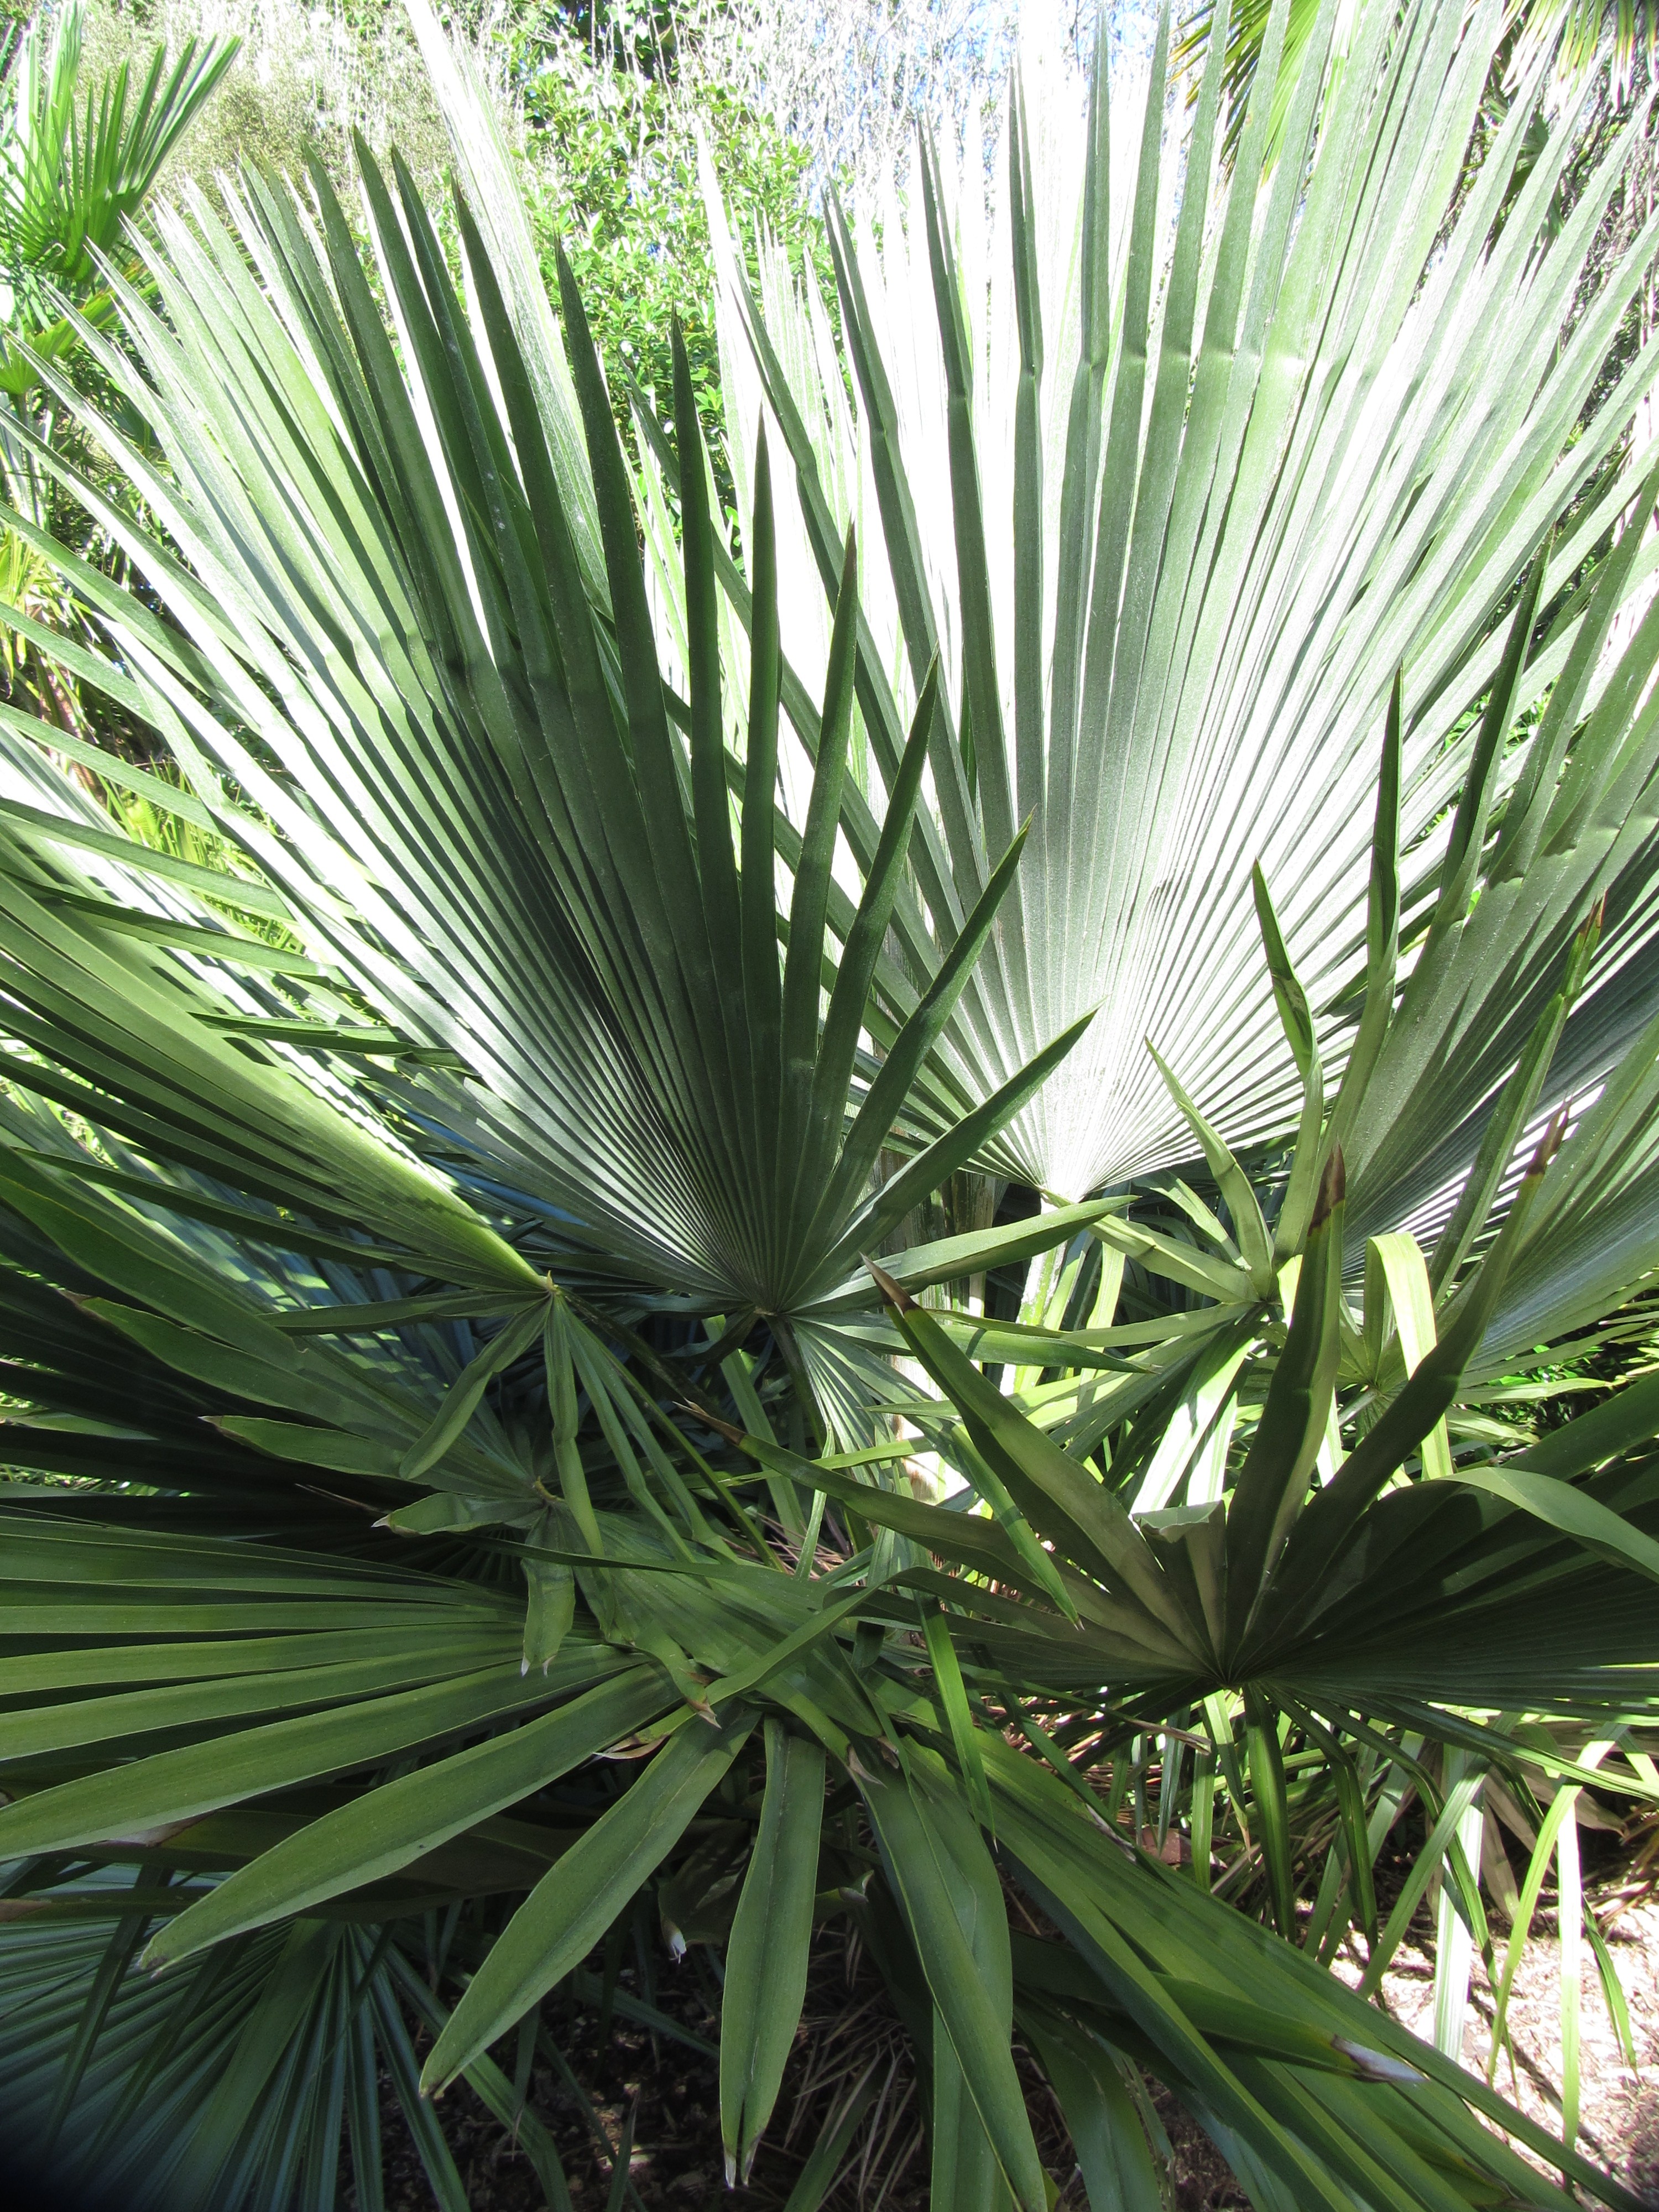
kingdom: Plantae
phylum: Tracheophyta
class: Liliopsida
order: Arecales
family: Arecaceae
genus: Trithrinax
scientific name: Trithrinax brasiliensis
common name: Carana palm
